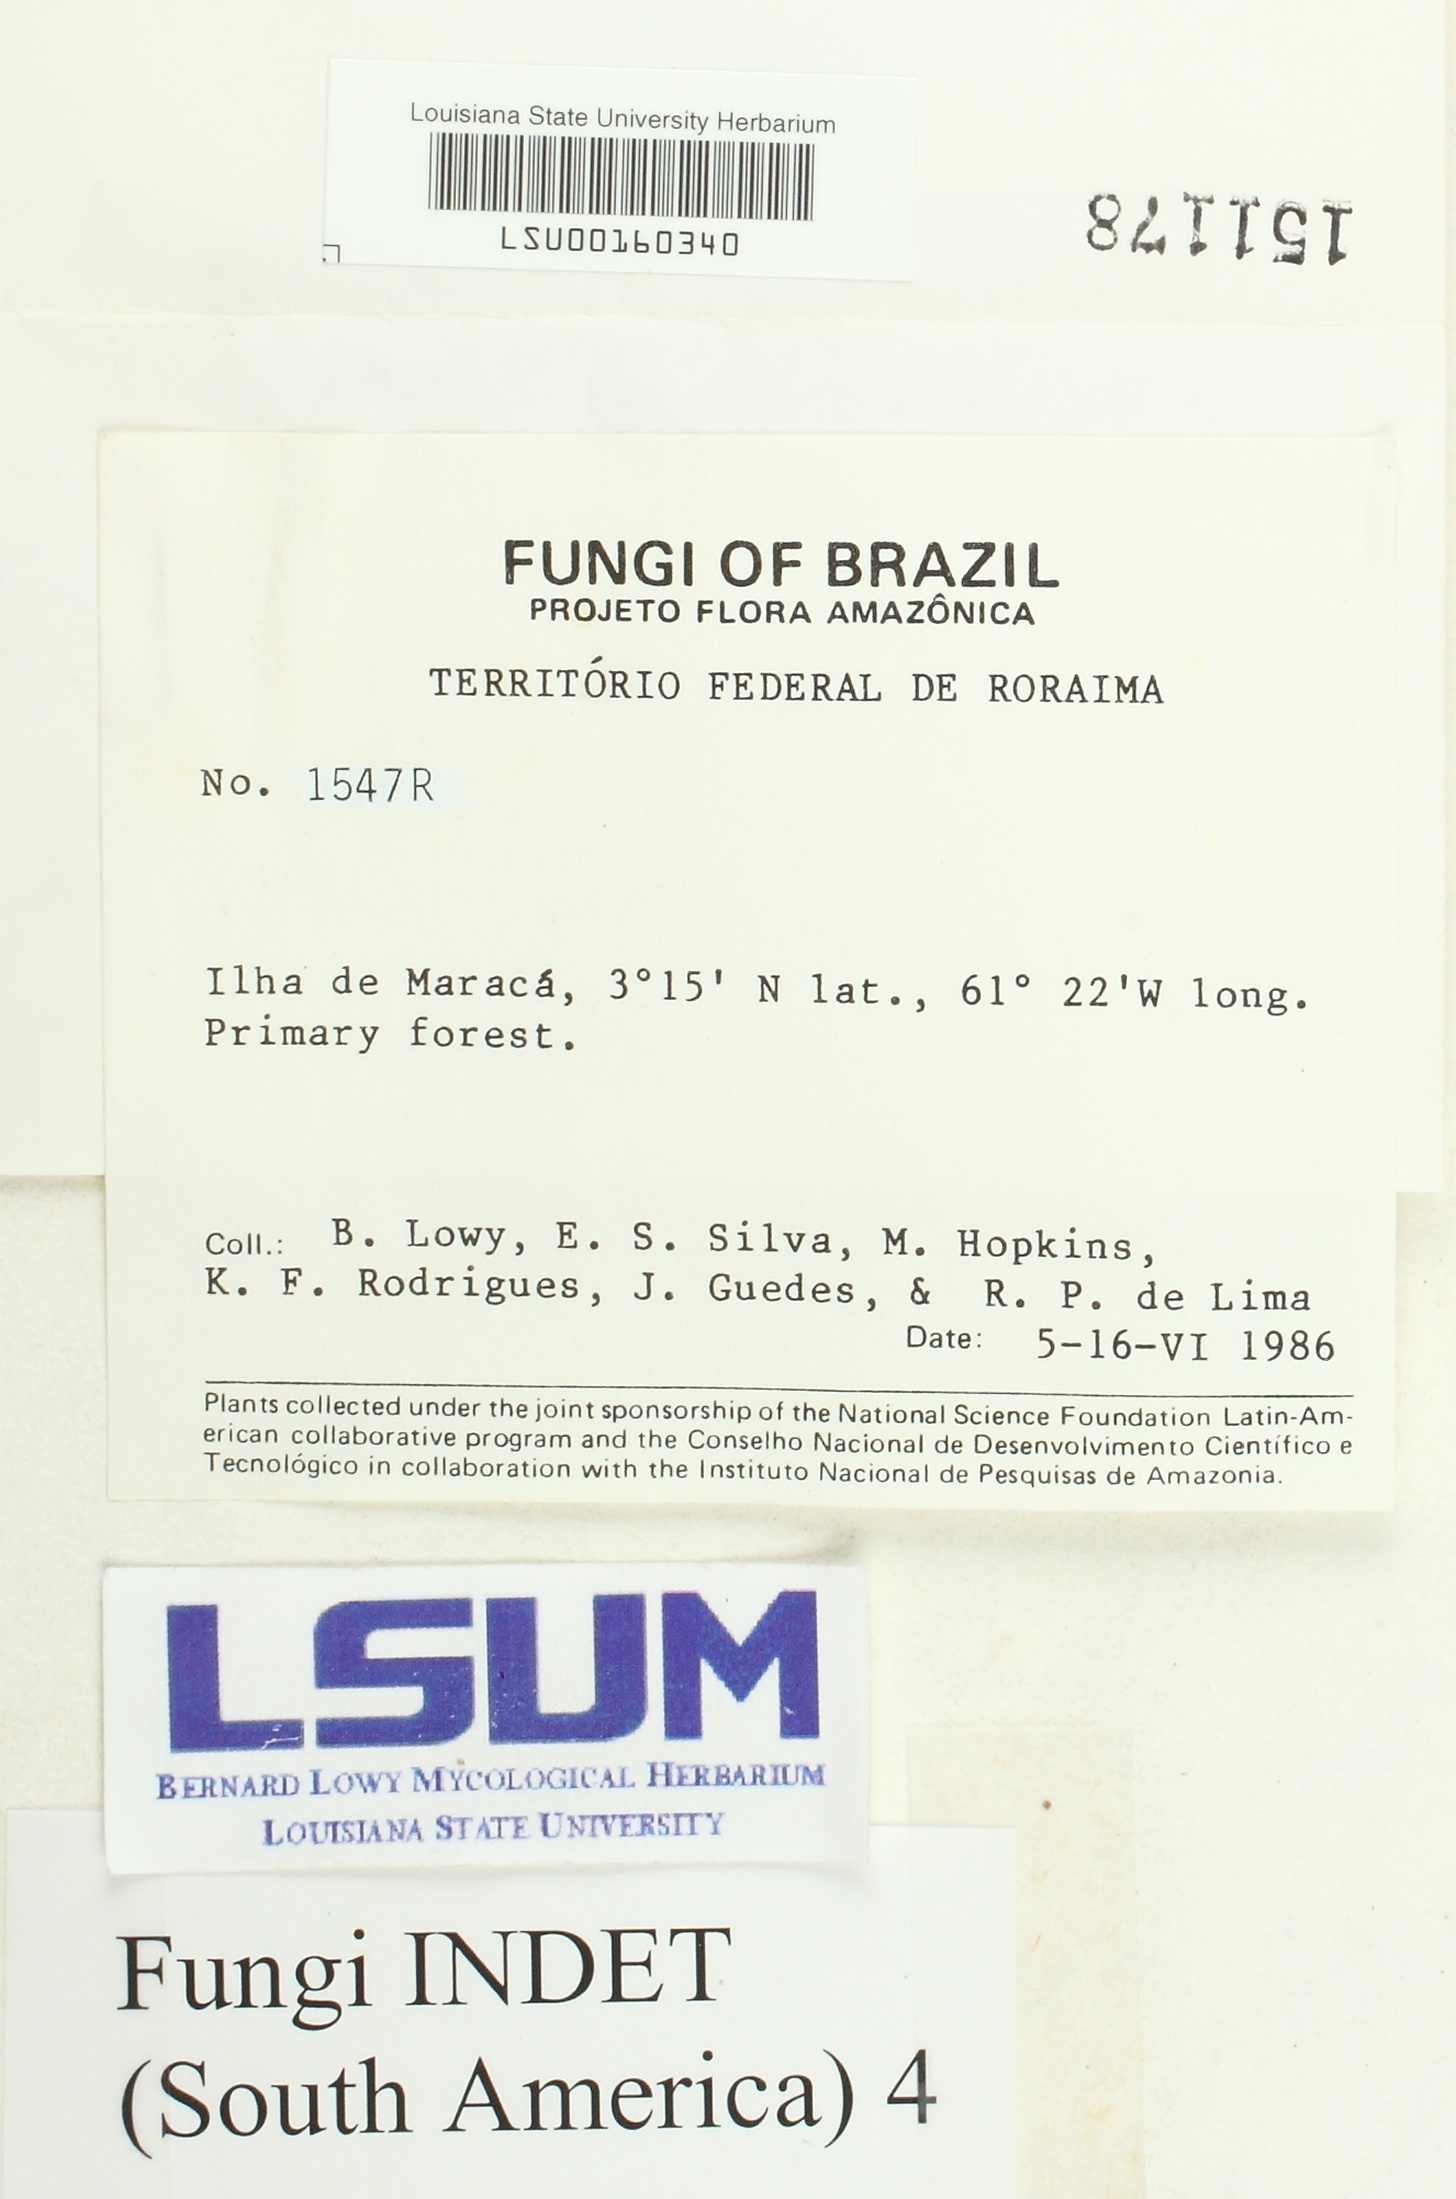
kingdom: Fungi
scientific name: Fungi
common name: Fungi
